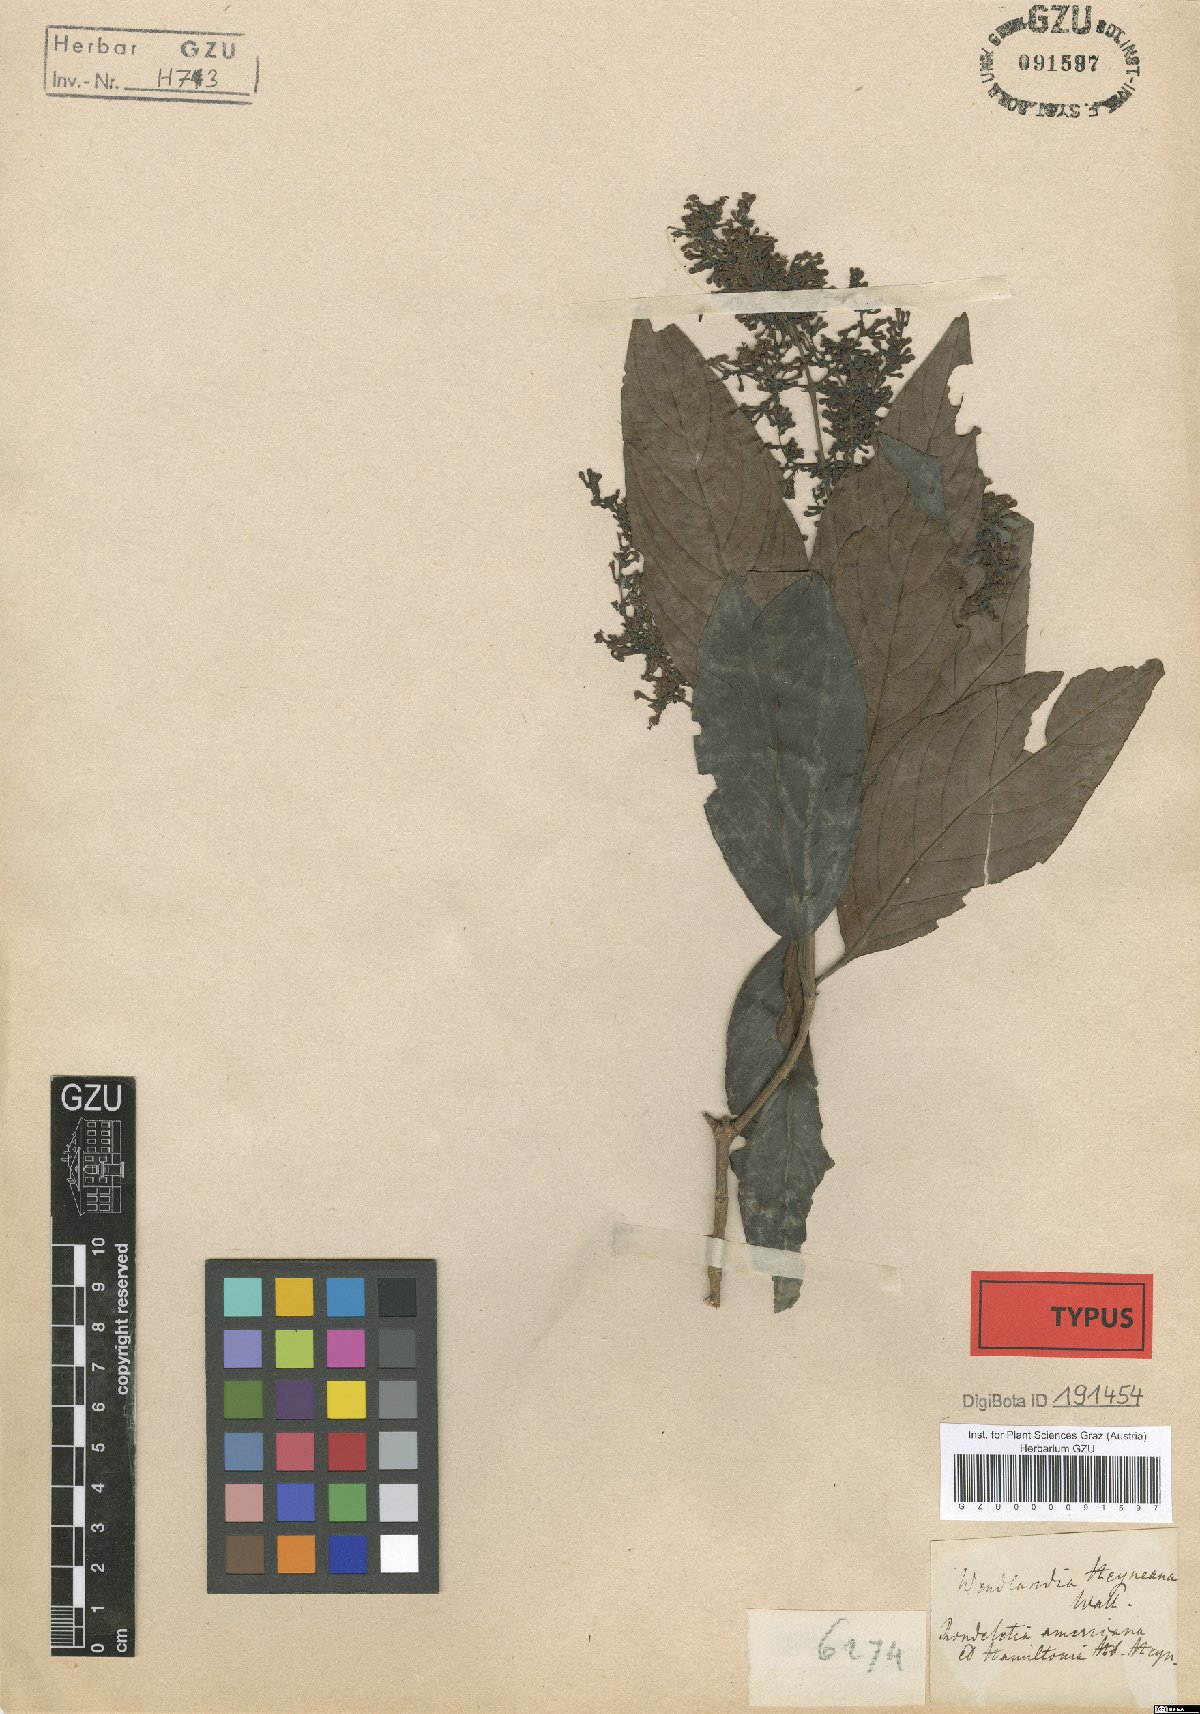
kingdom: Plantae
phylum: Tracheophyta
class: Magnoliopsida
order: Gentianales
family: Rubiaceae
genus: Wendlandia
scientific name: Wendlandia heyneana
